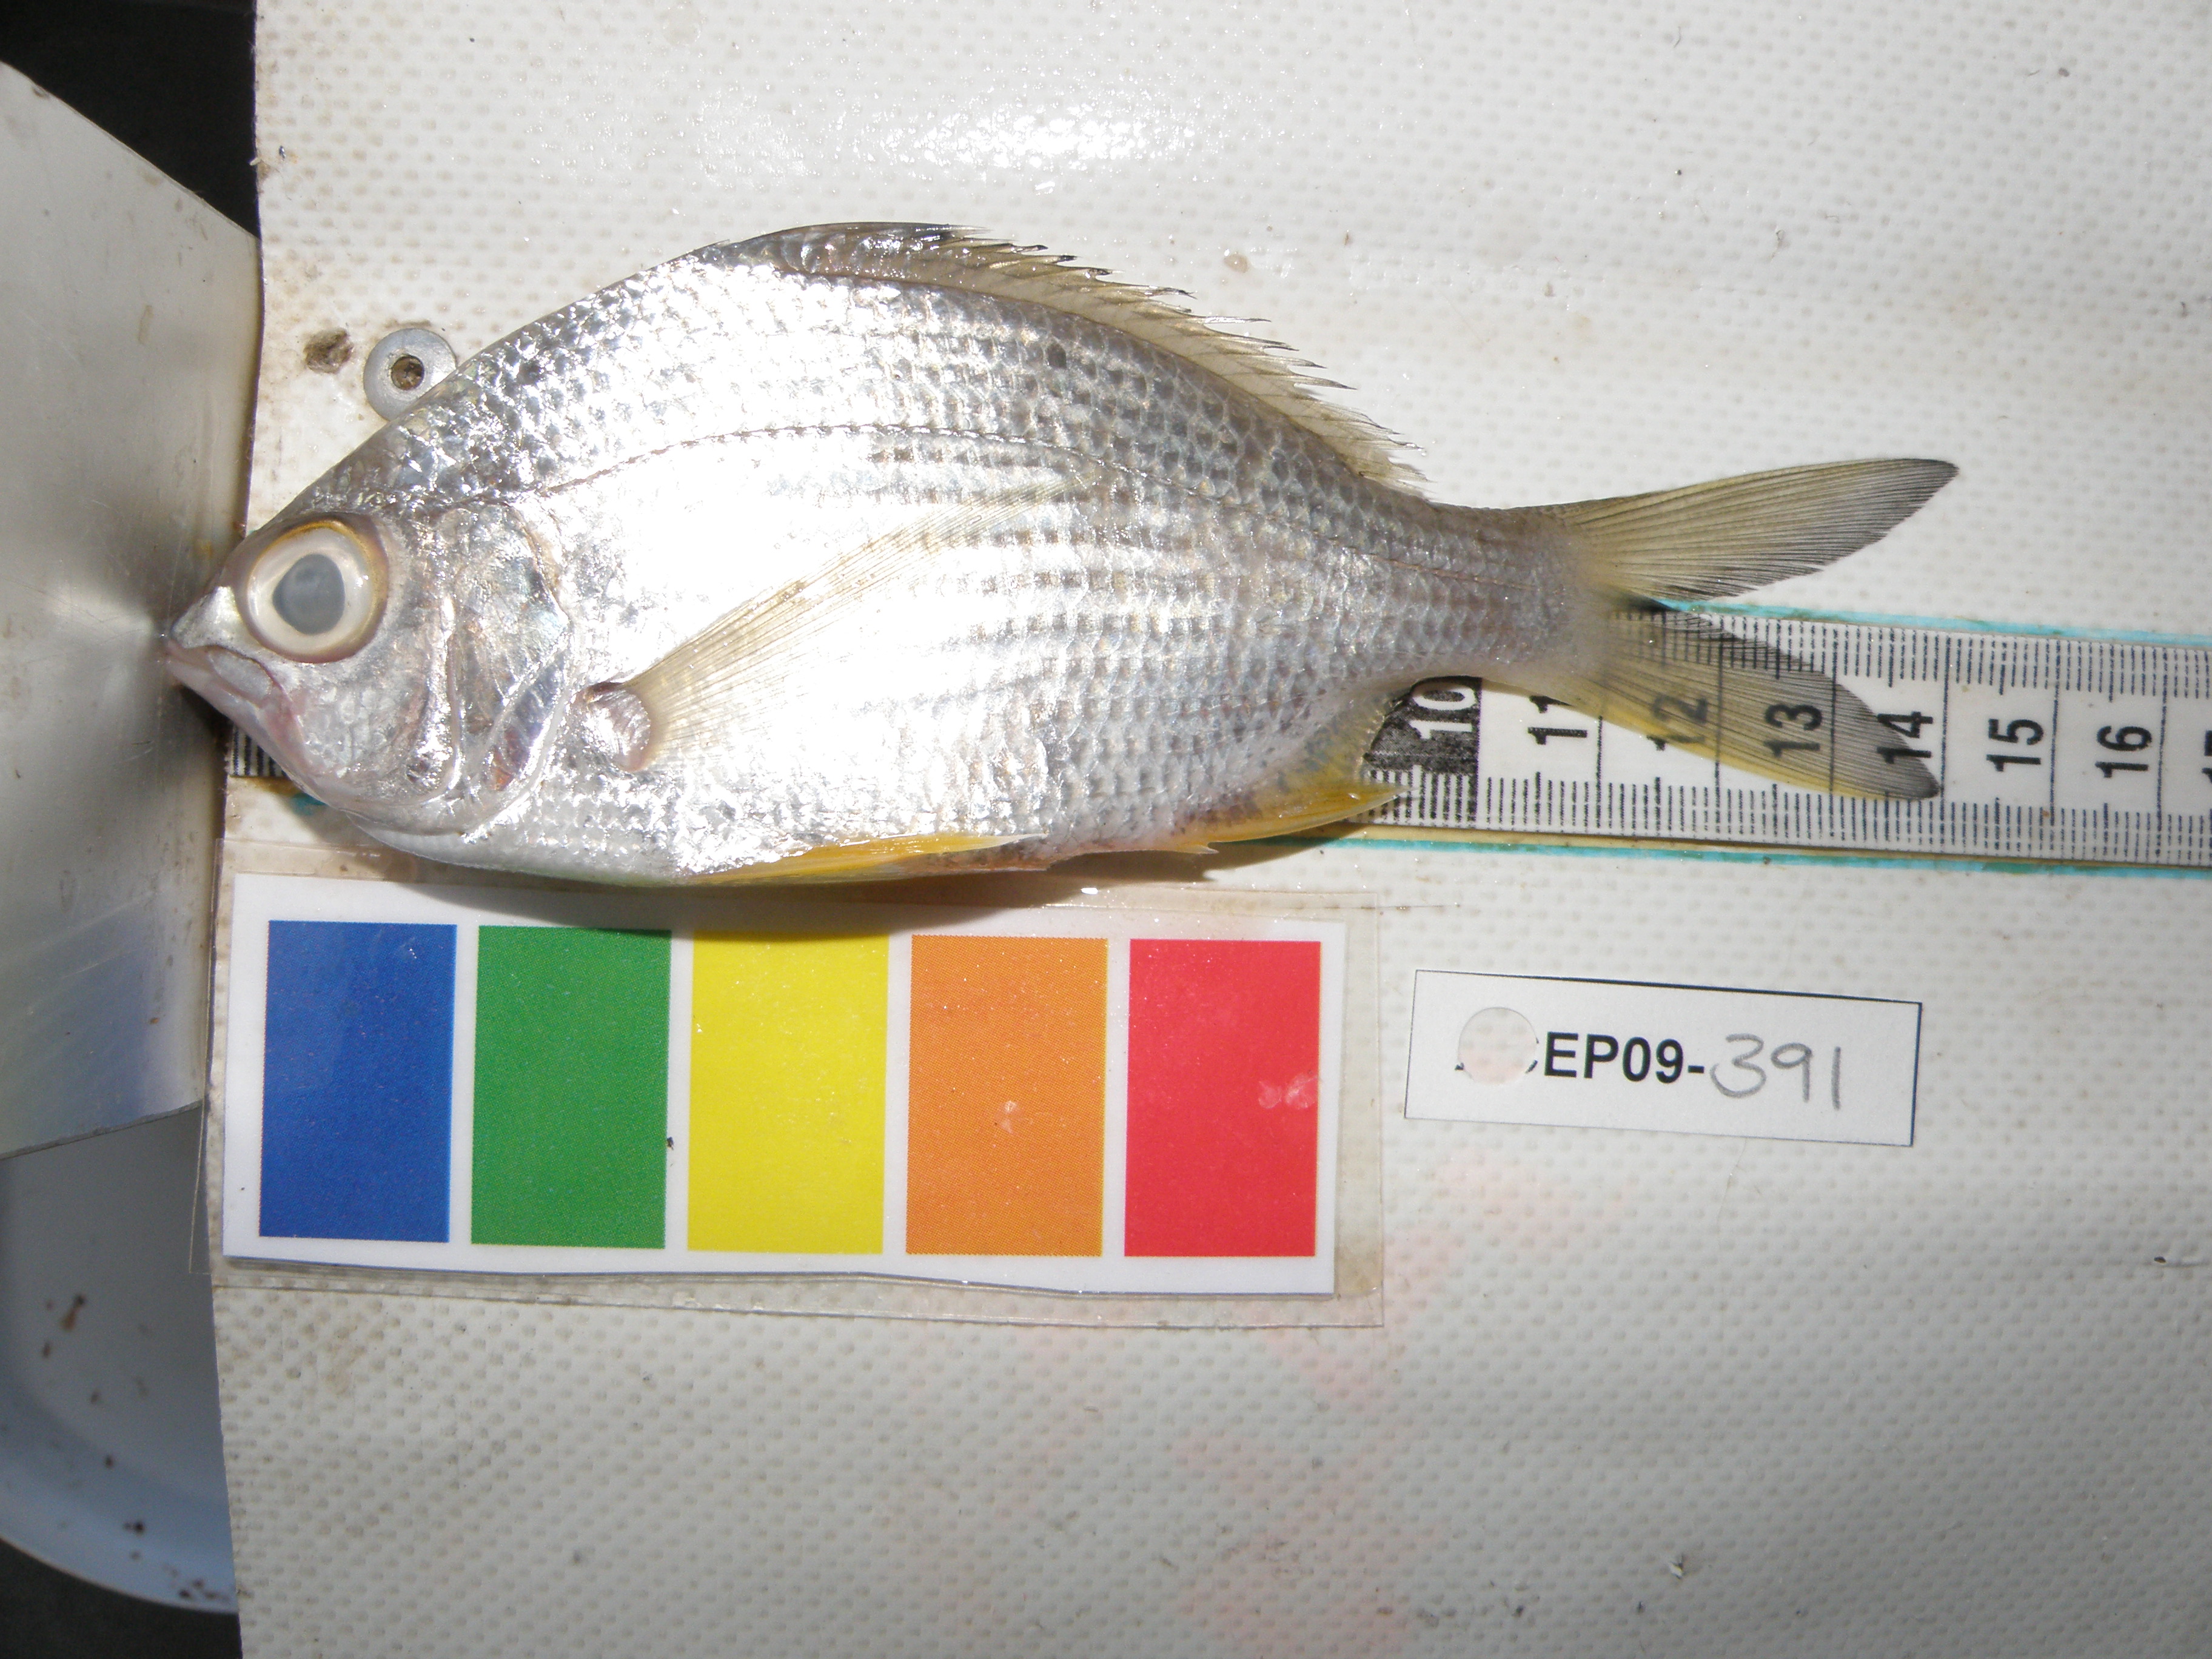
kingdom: Animalia
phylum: Chordata
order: Perciformes
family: Gerreidae
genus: Gerres
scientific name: Gerres methueni
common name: Longtail silverbiddy
